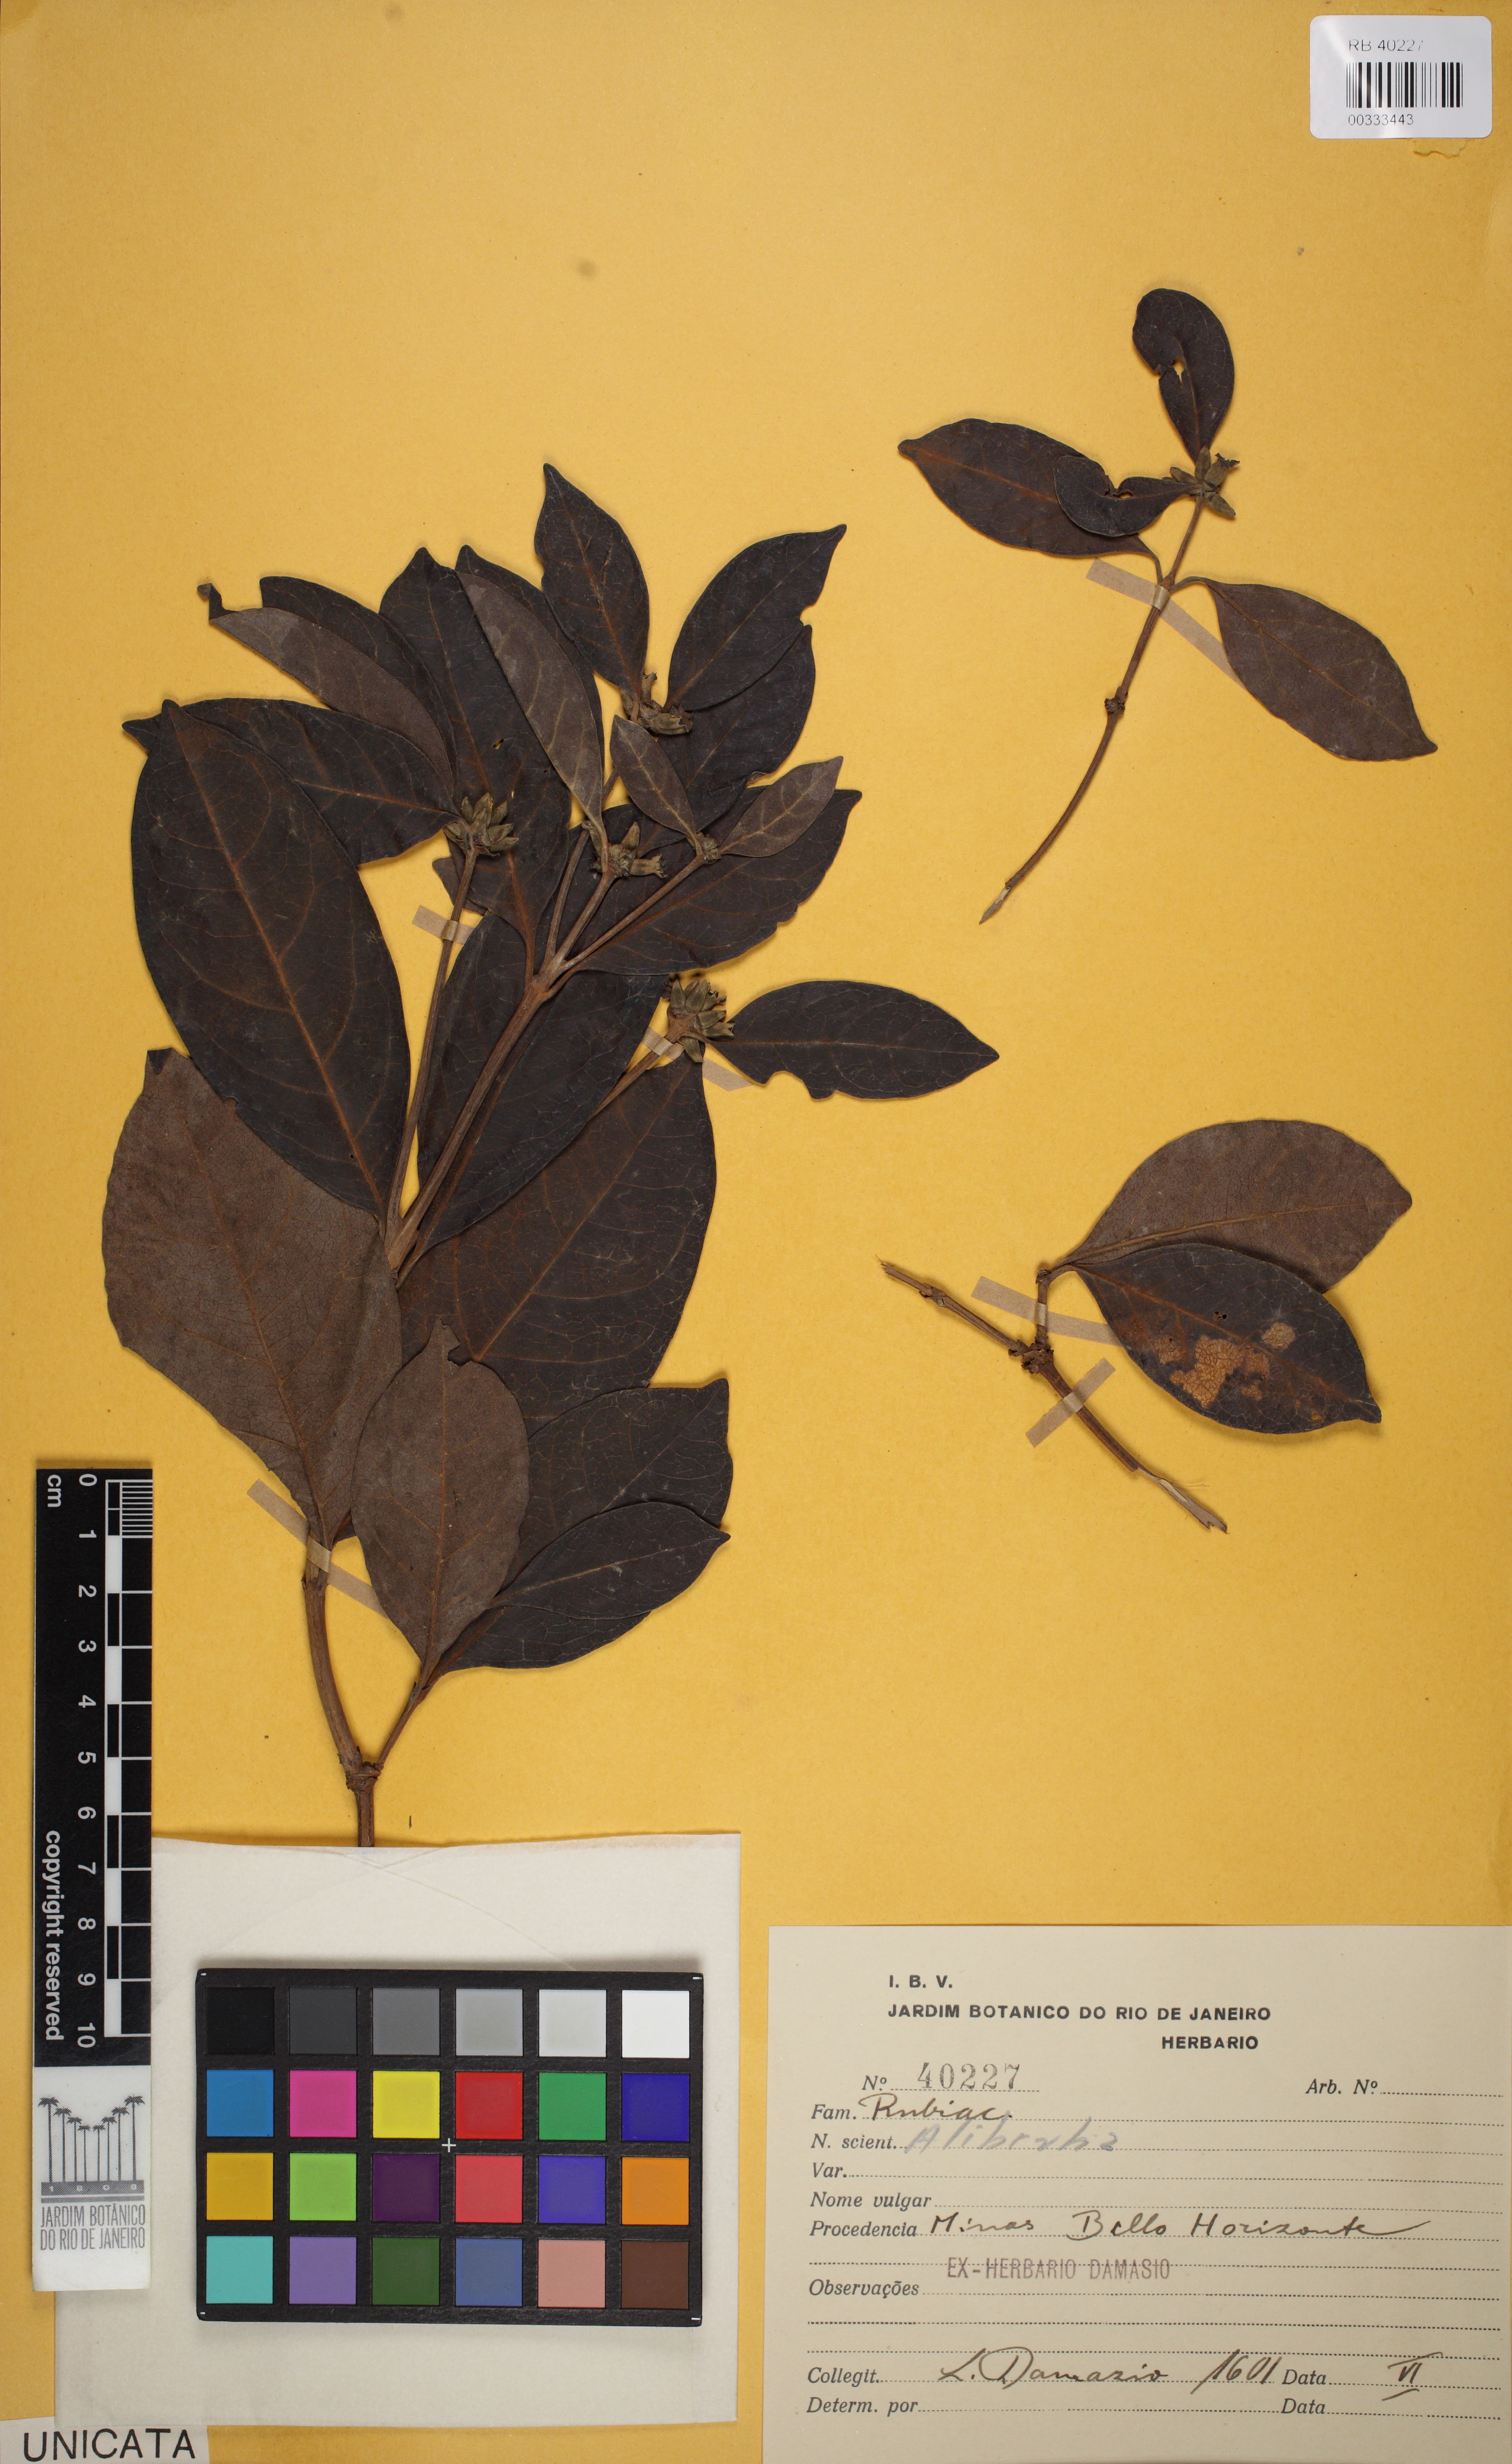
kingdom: Plantae
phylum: Tracheophyta
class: Magnoliopsida
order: Gentianales
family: Rubiaceae
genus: Cordiera
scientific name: Cordiera elliptica
